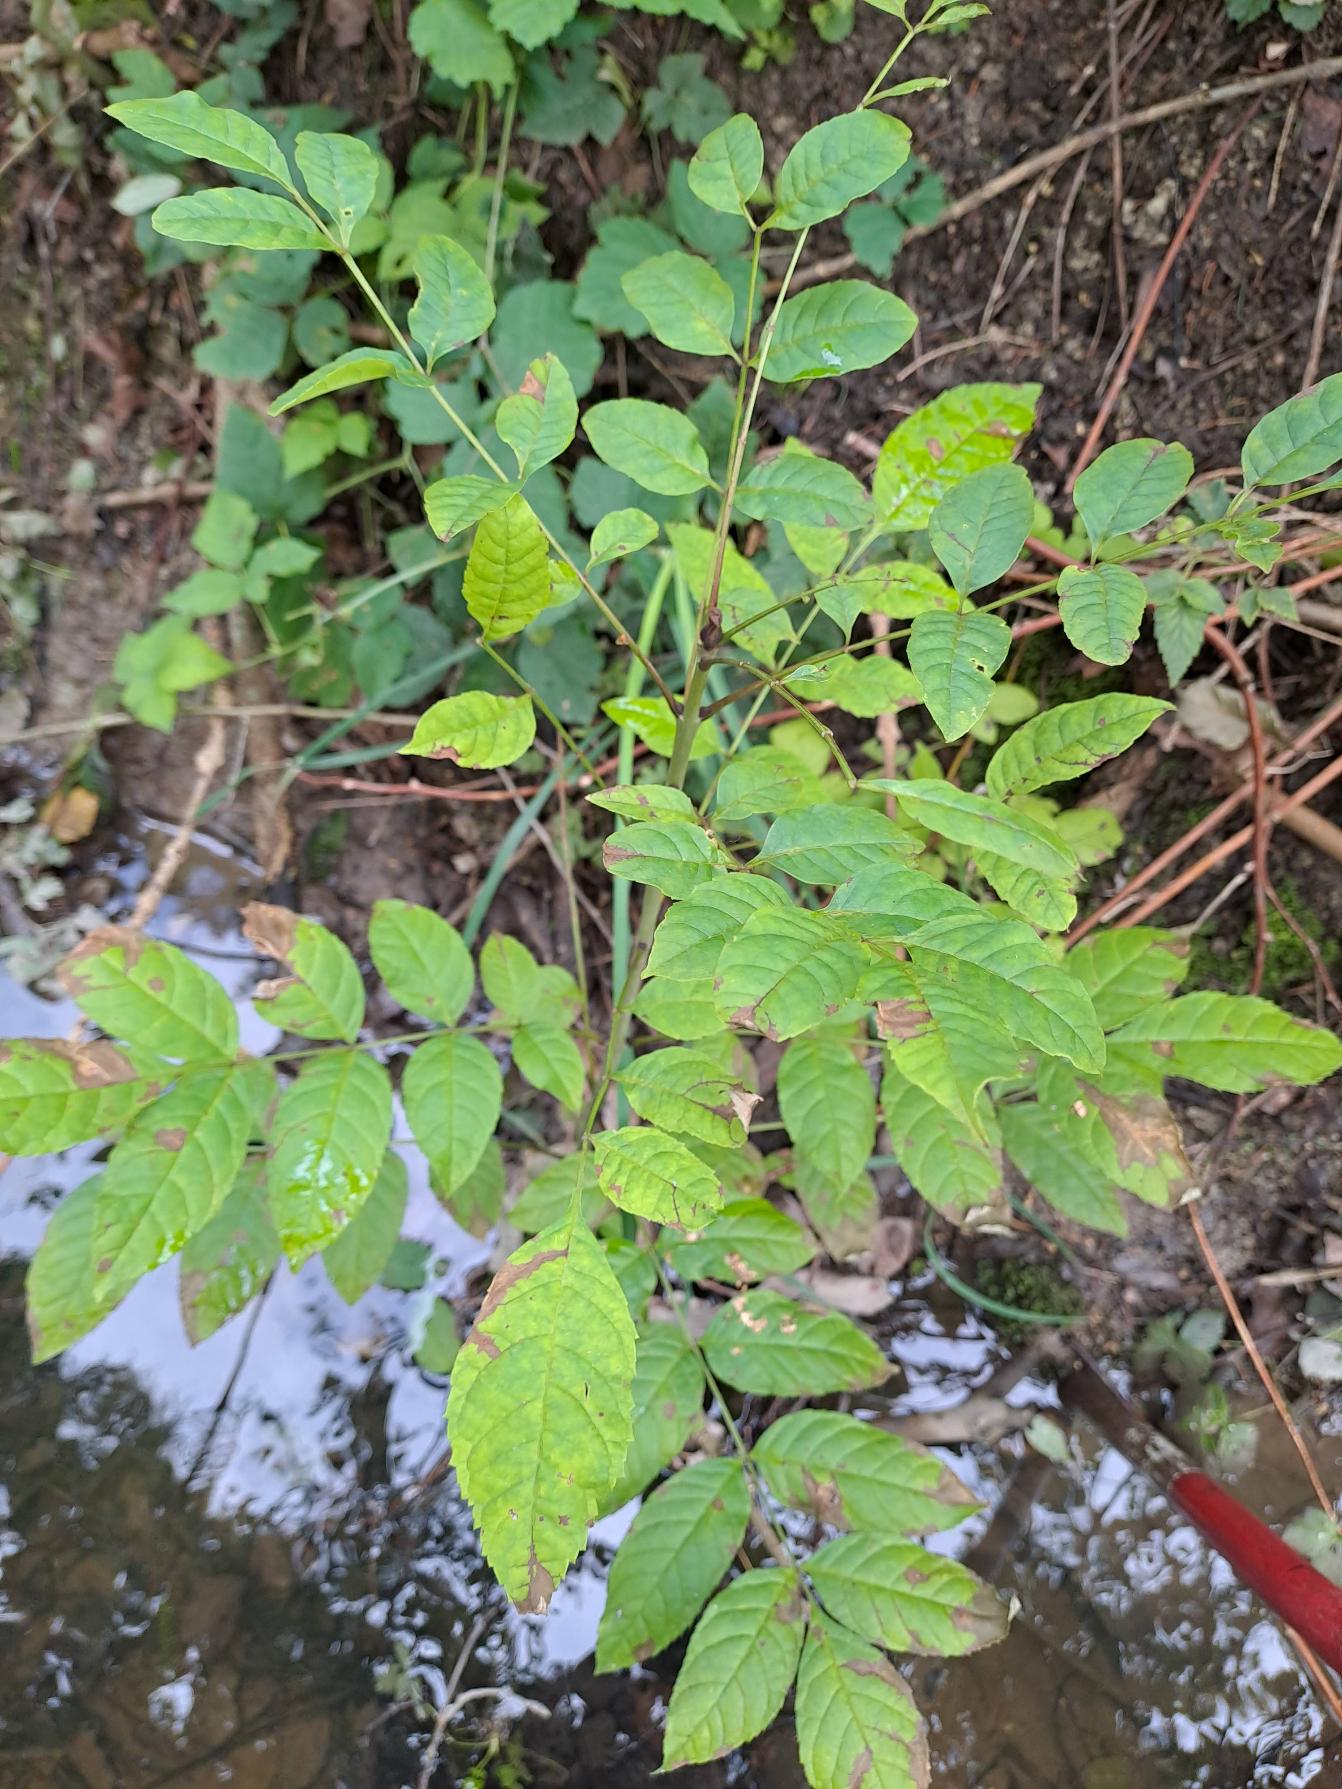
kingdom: Plantae
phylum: Tracheophyta
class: Magnoliopsida
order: Lamiales
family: Oleaceae
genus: Fraxinus
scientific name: Fraxinus excelsior
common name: Ask
